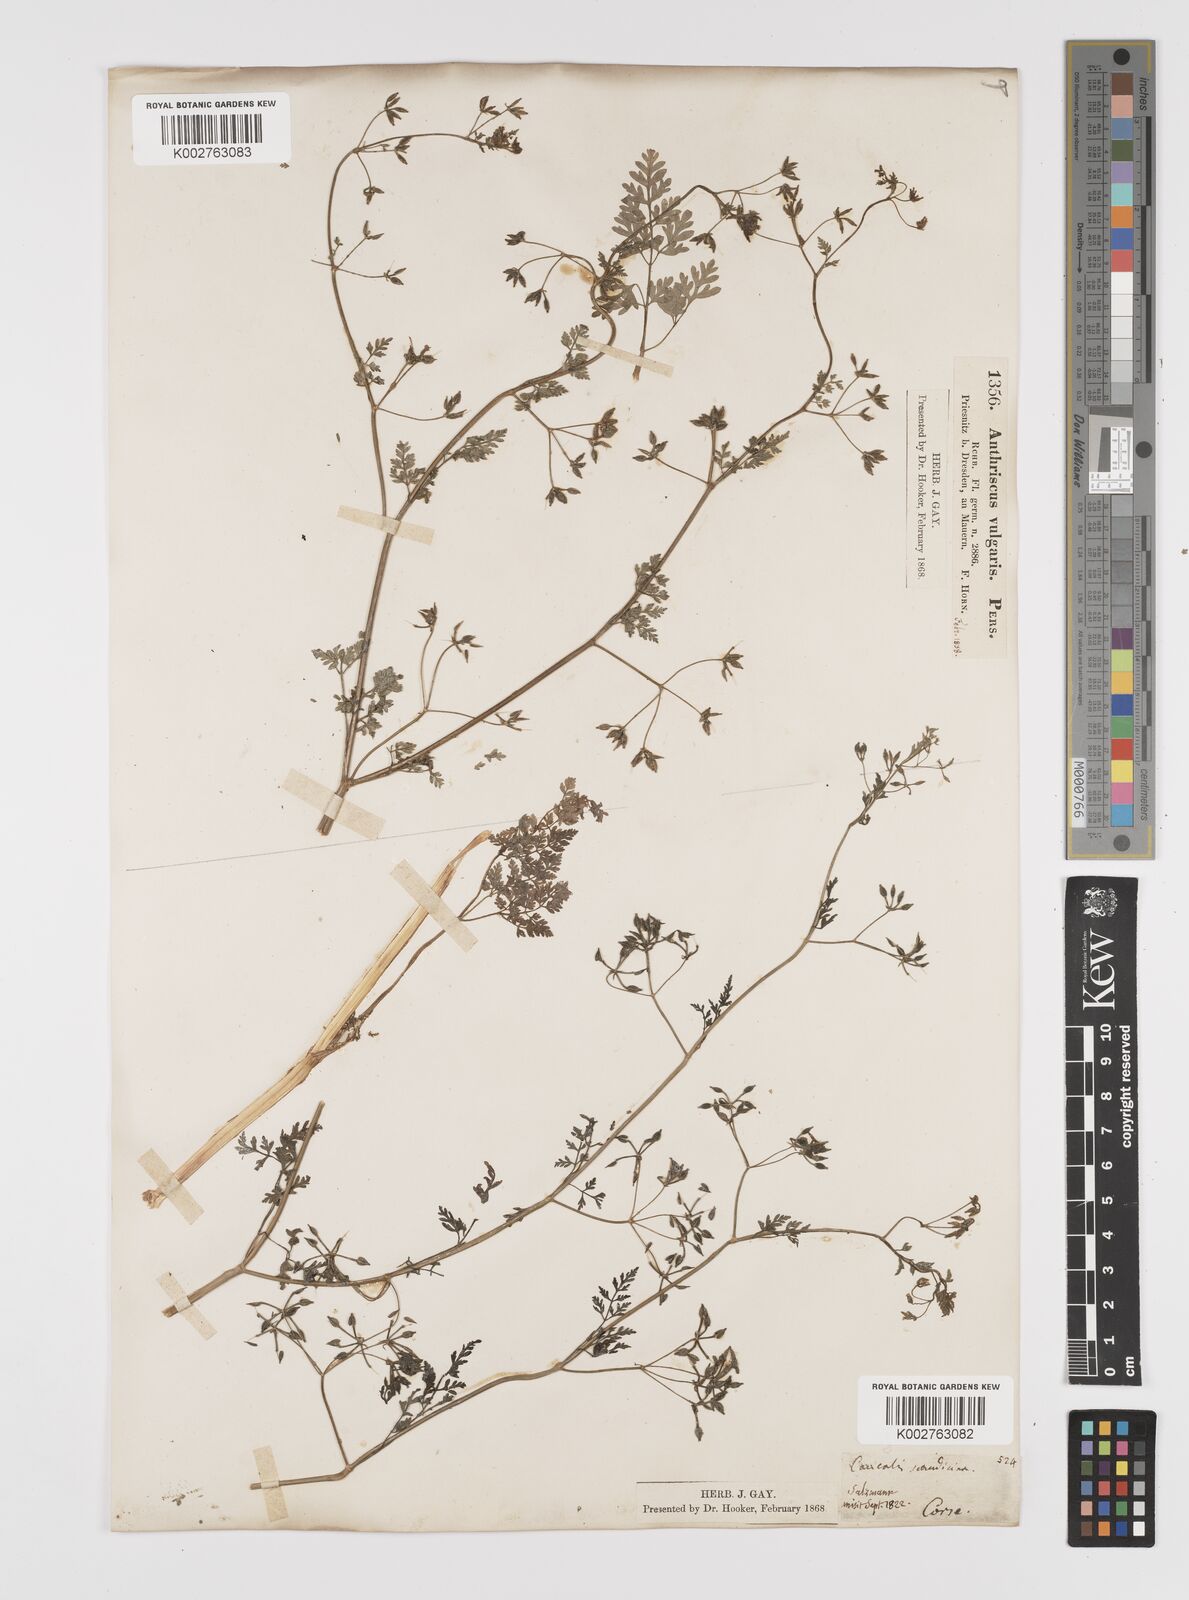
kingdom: Plantae
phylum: Tracheophyta
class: Magnoliopsida
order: Apiales
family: Apiaceae
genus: Anthriscus
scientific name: Anthriscus caucalis
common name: Bur chervil
